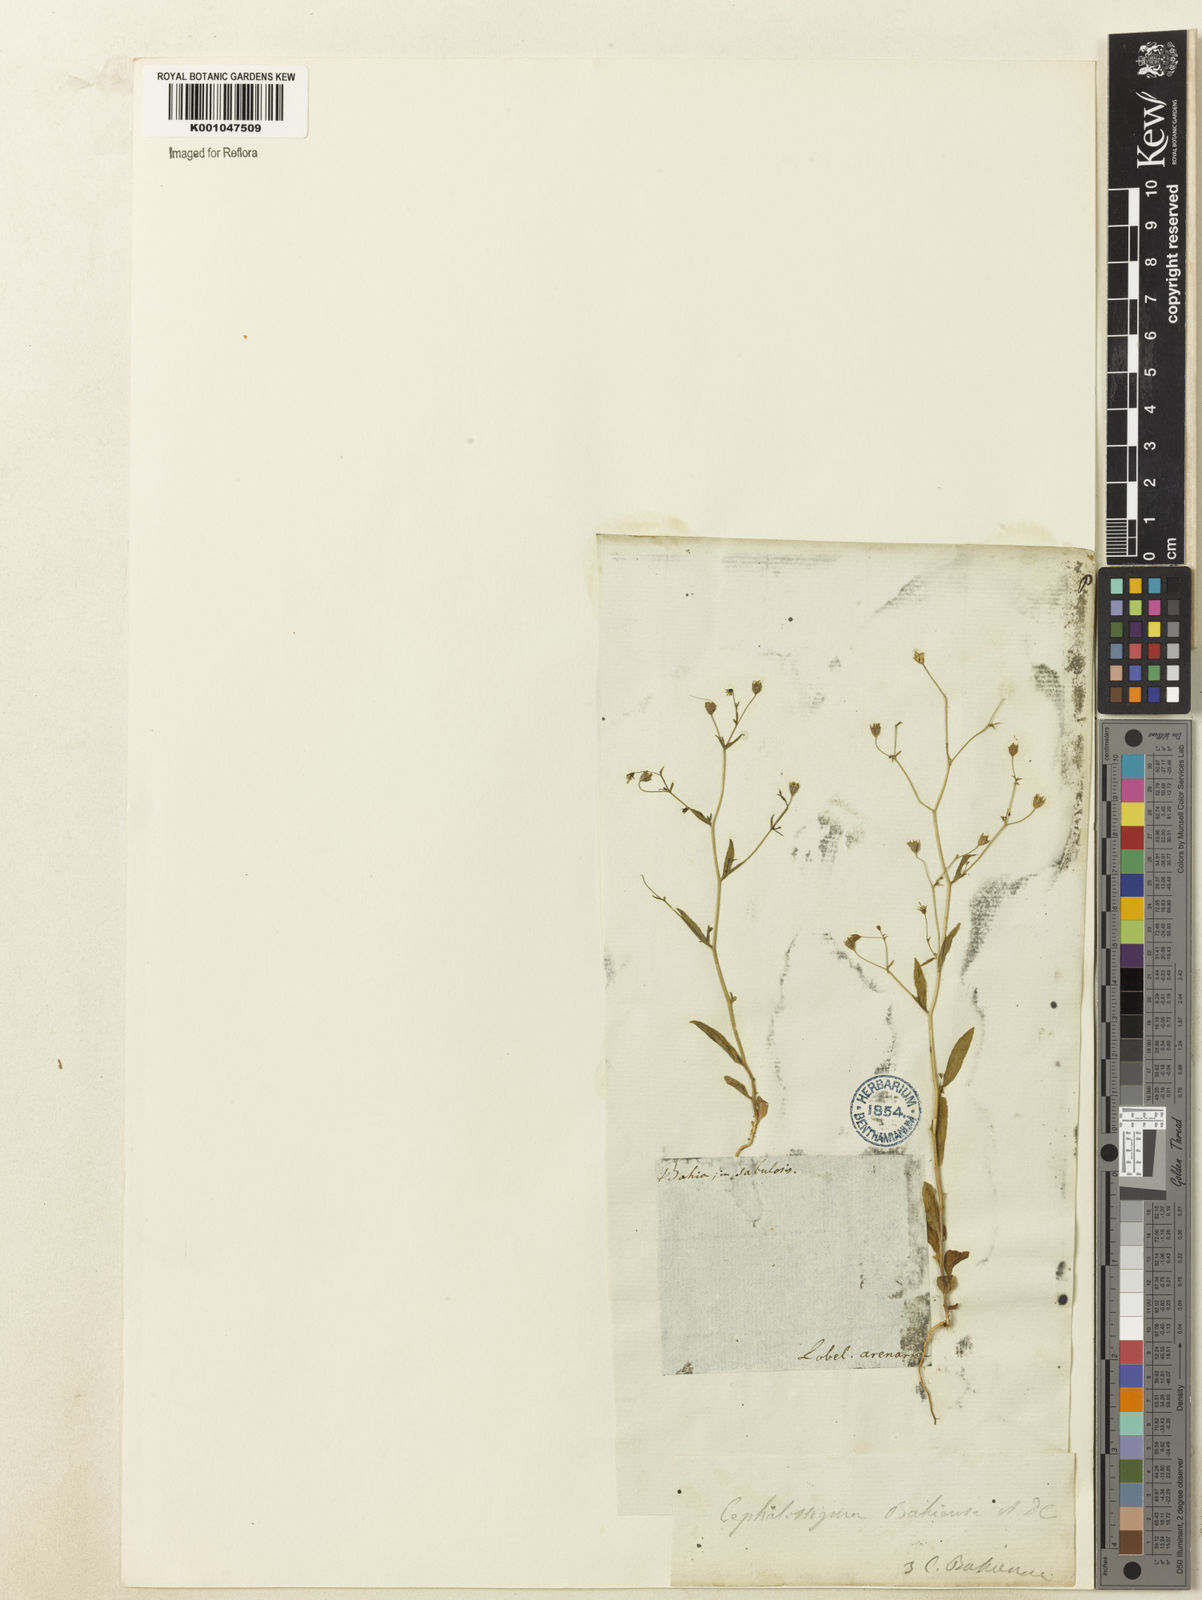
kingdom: Plantae
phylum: Tracheophyta
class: Magnoliopsida
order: Asterales
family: Campanulaceae
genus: Wahlenbergia
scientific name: Wahlenbergia perrottetii
